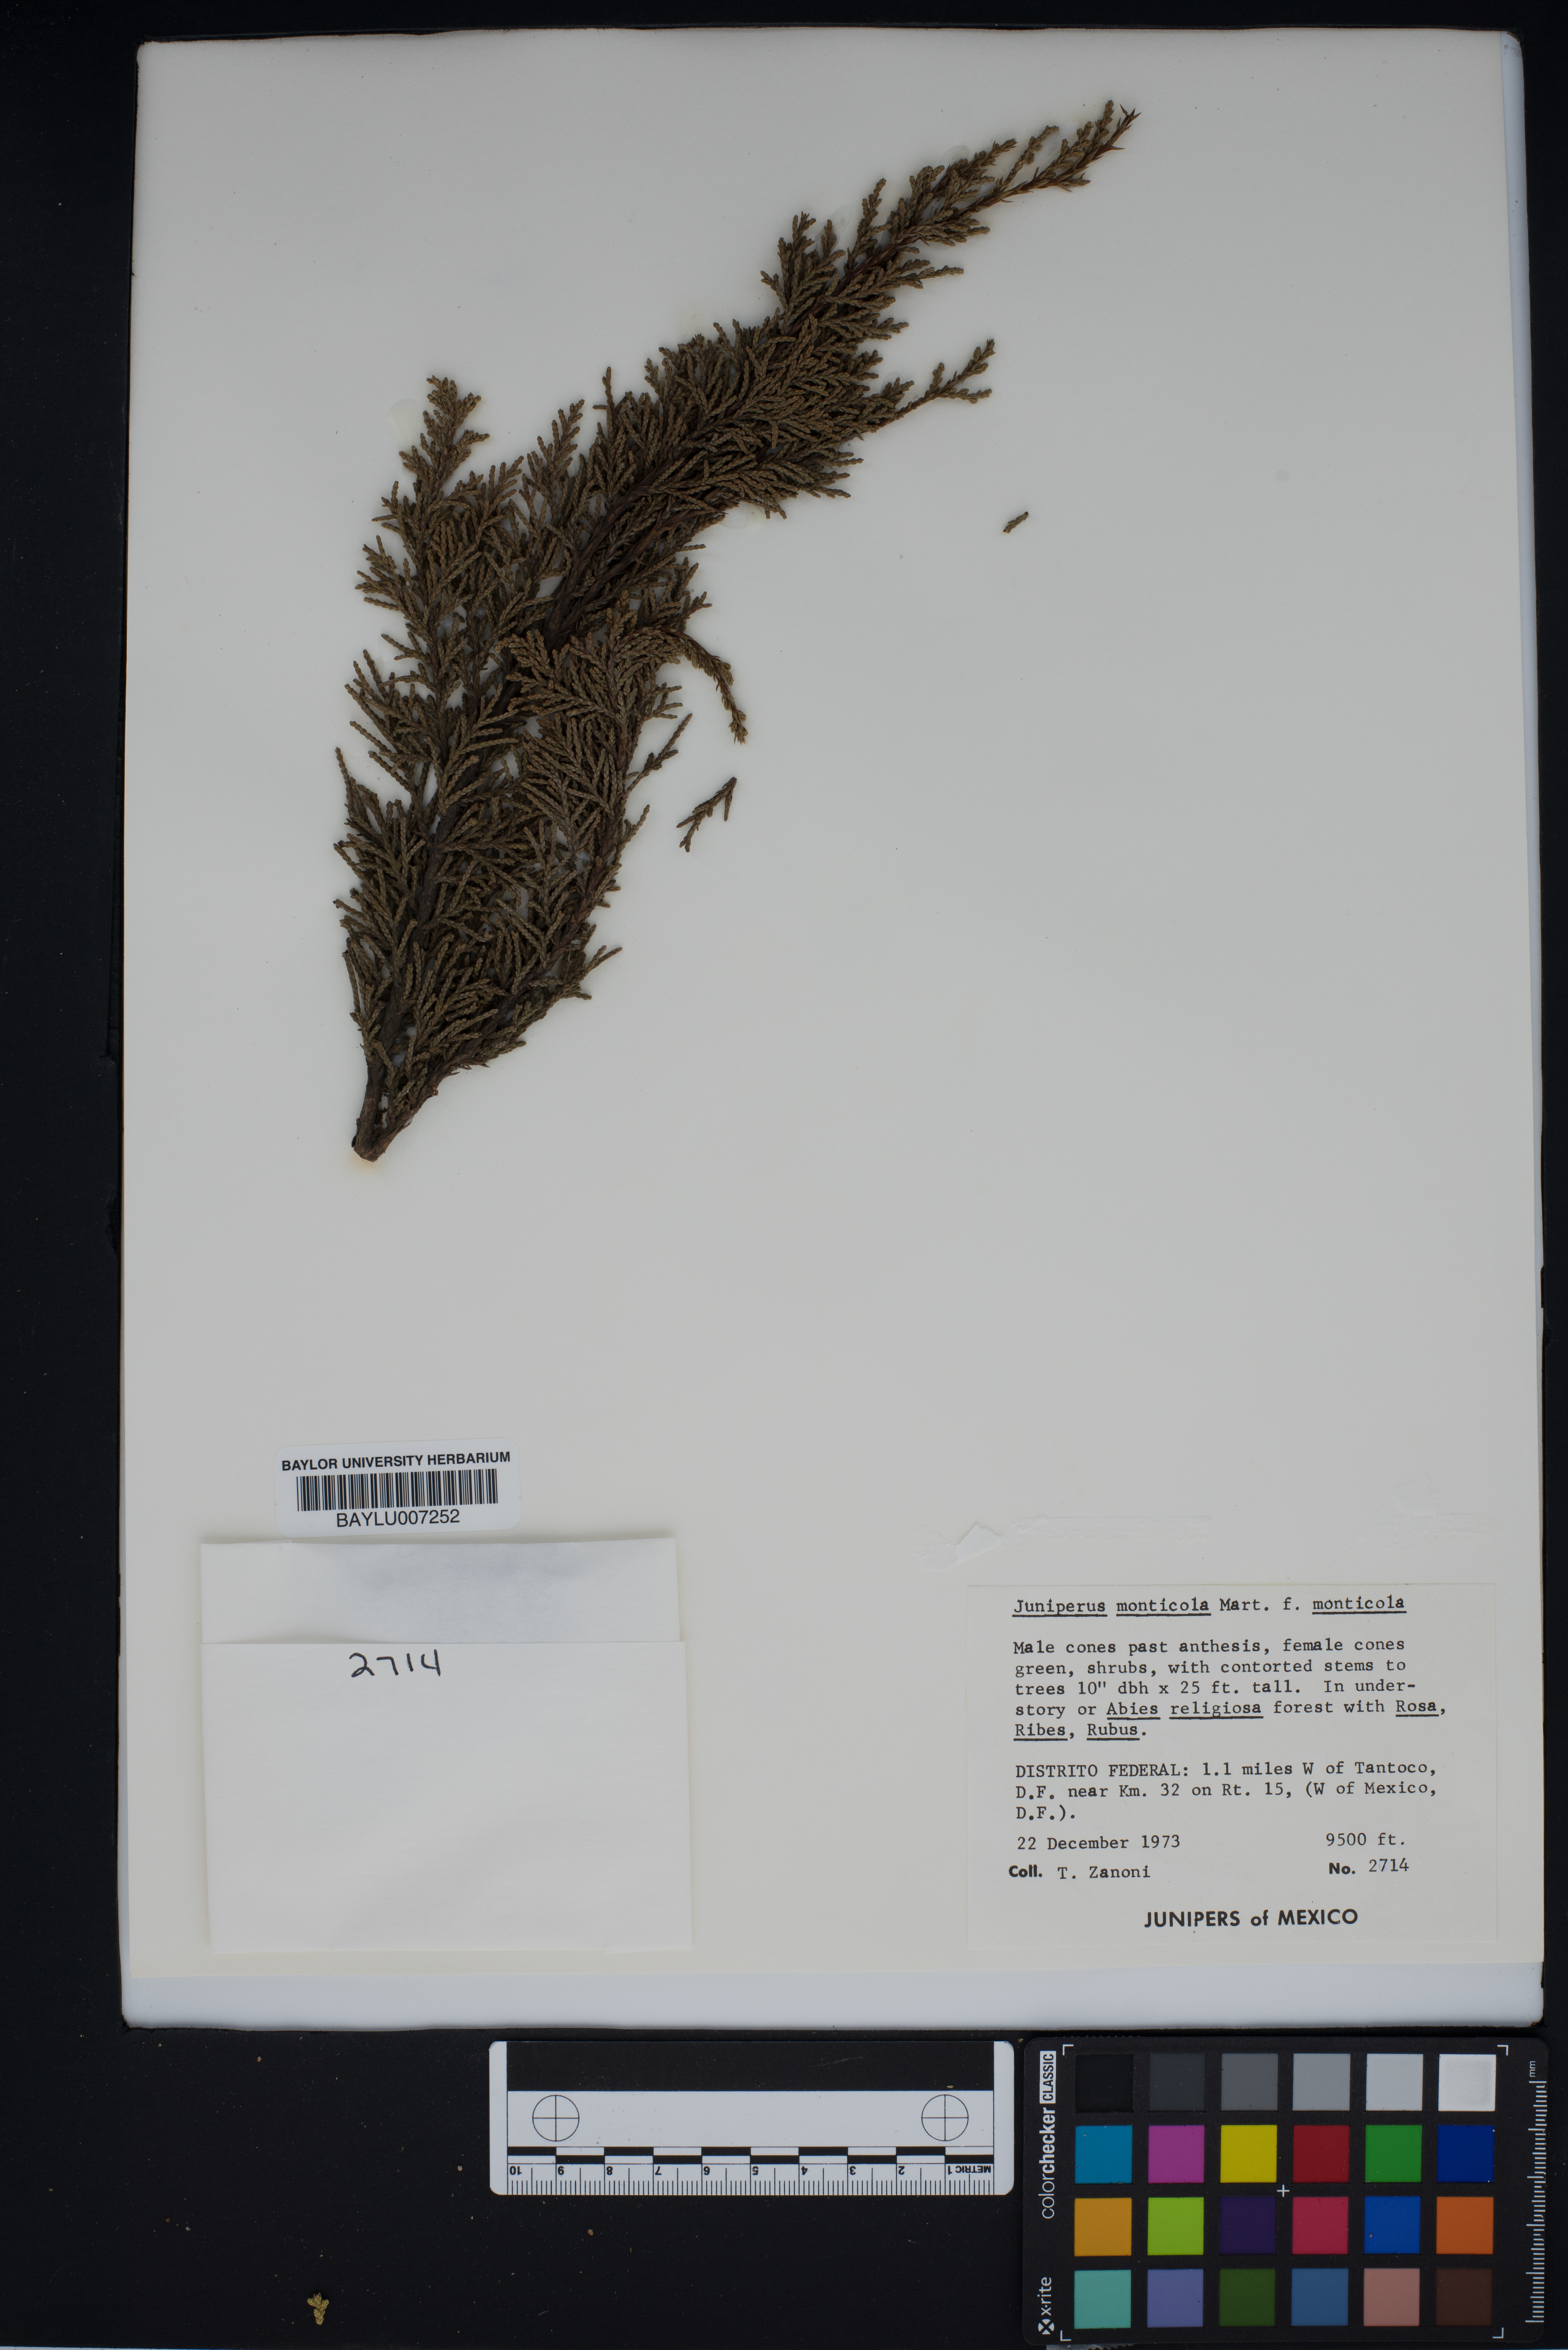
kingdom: Plantae
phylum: Tracheophyta
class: Pinopsida
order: Pinales
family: Cupressaceae
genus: Juniperus
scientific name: Juniperus monticola
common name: Mexican juniper
